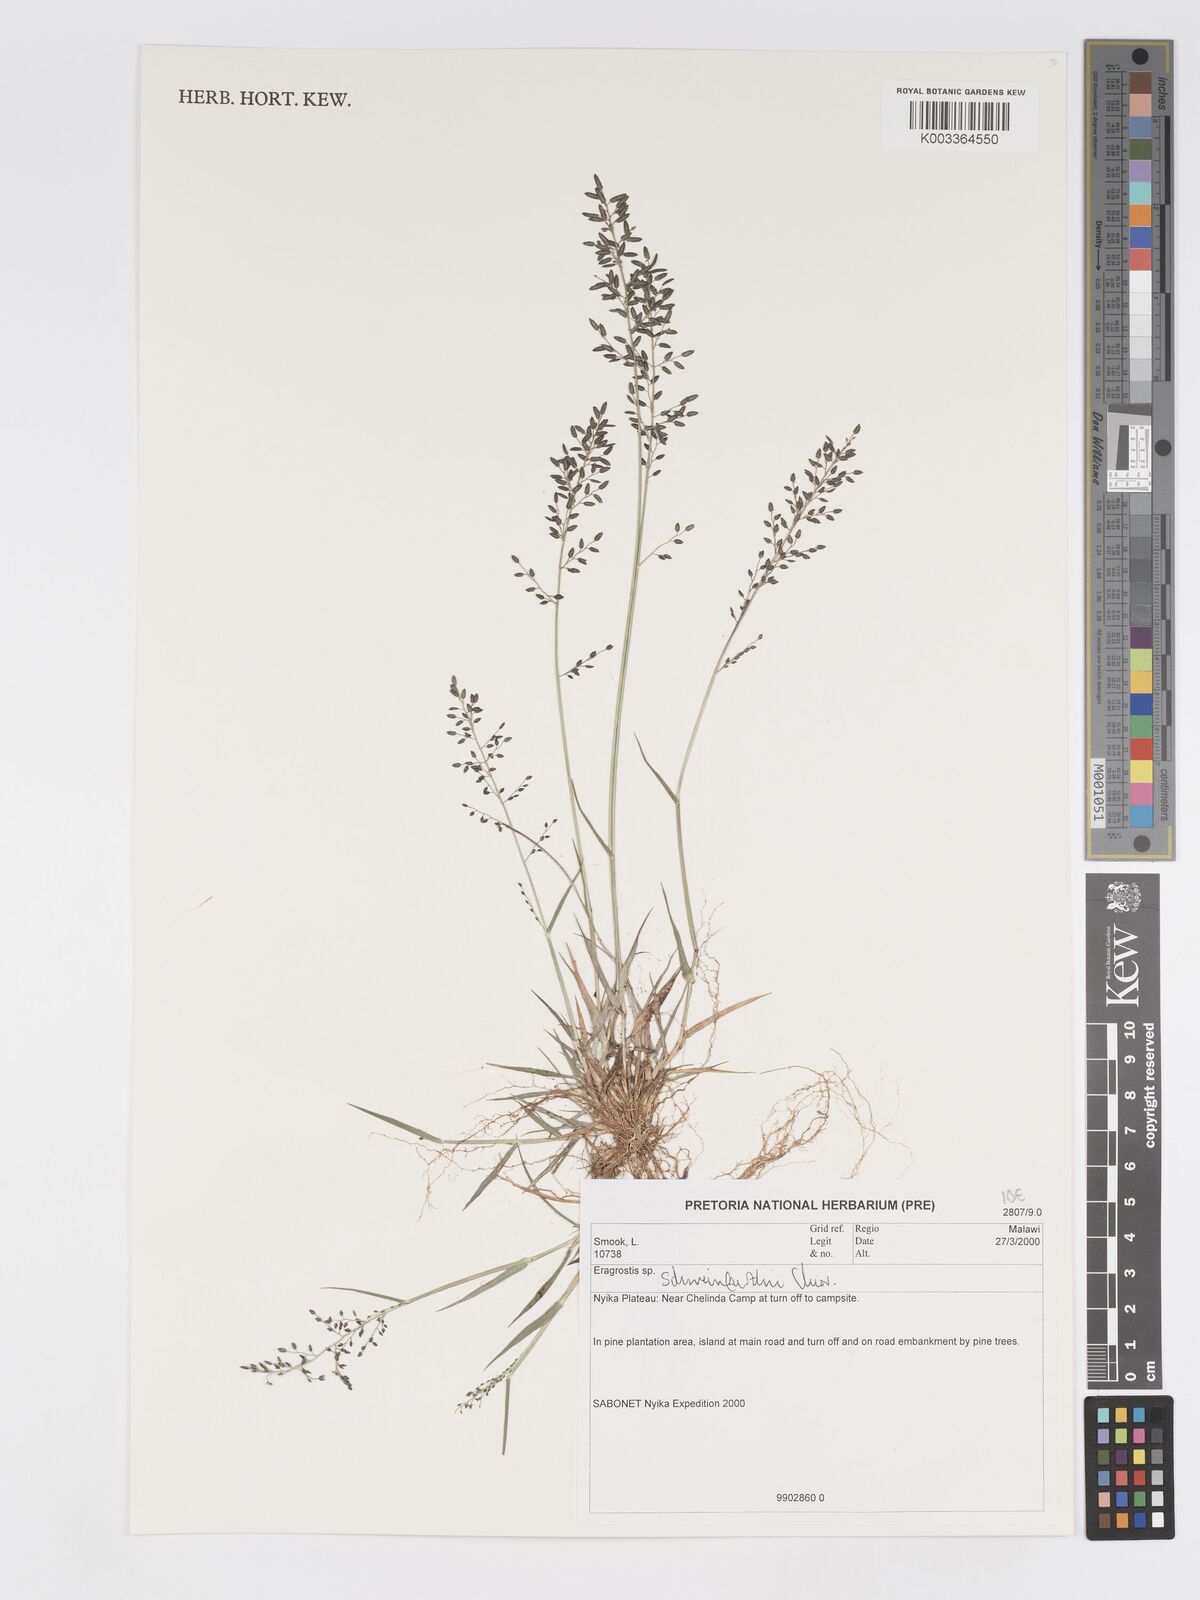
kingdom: Plantae
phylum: Tracheophyta
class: Liliopsida
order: Poales
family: Poaceae
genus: Eragrostis
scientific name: Eragrostis schweinfurthii
